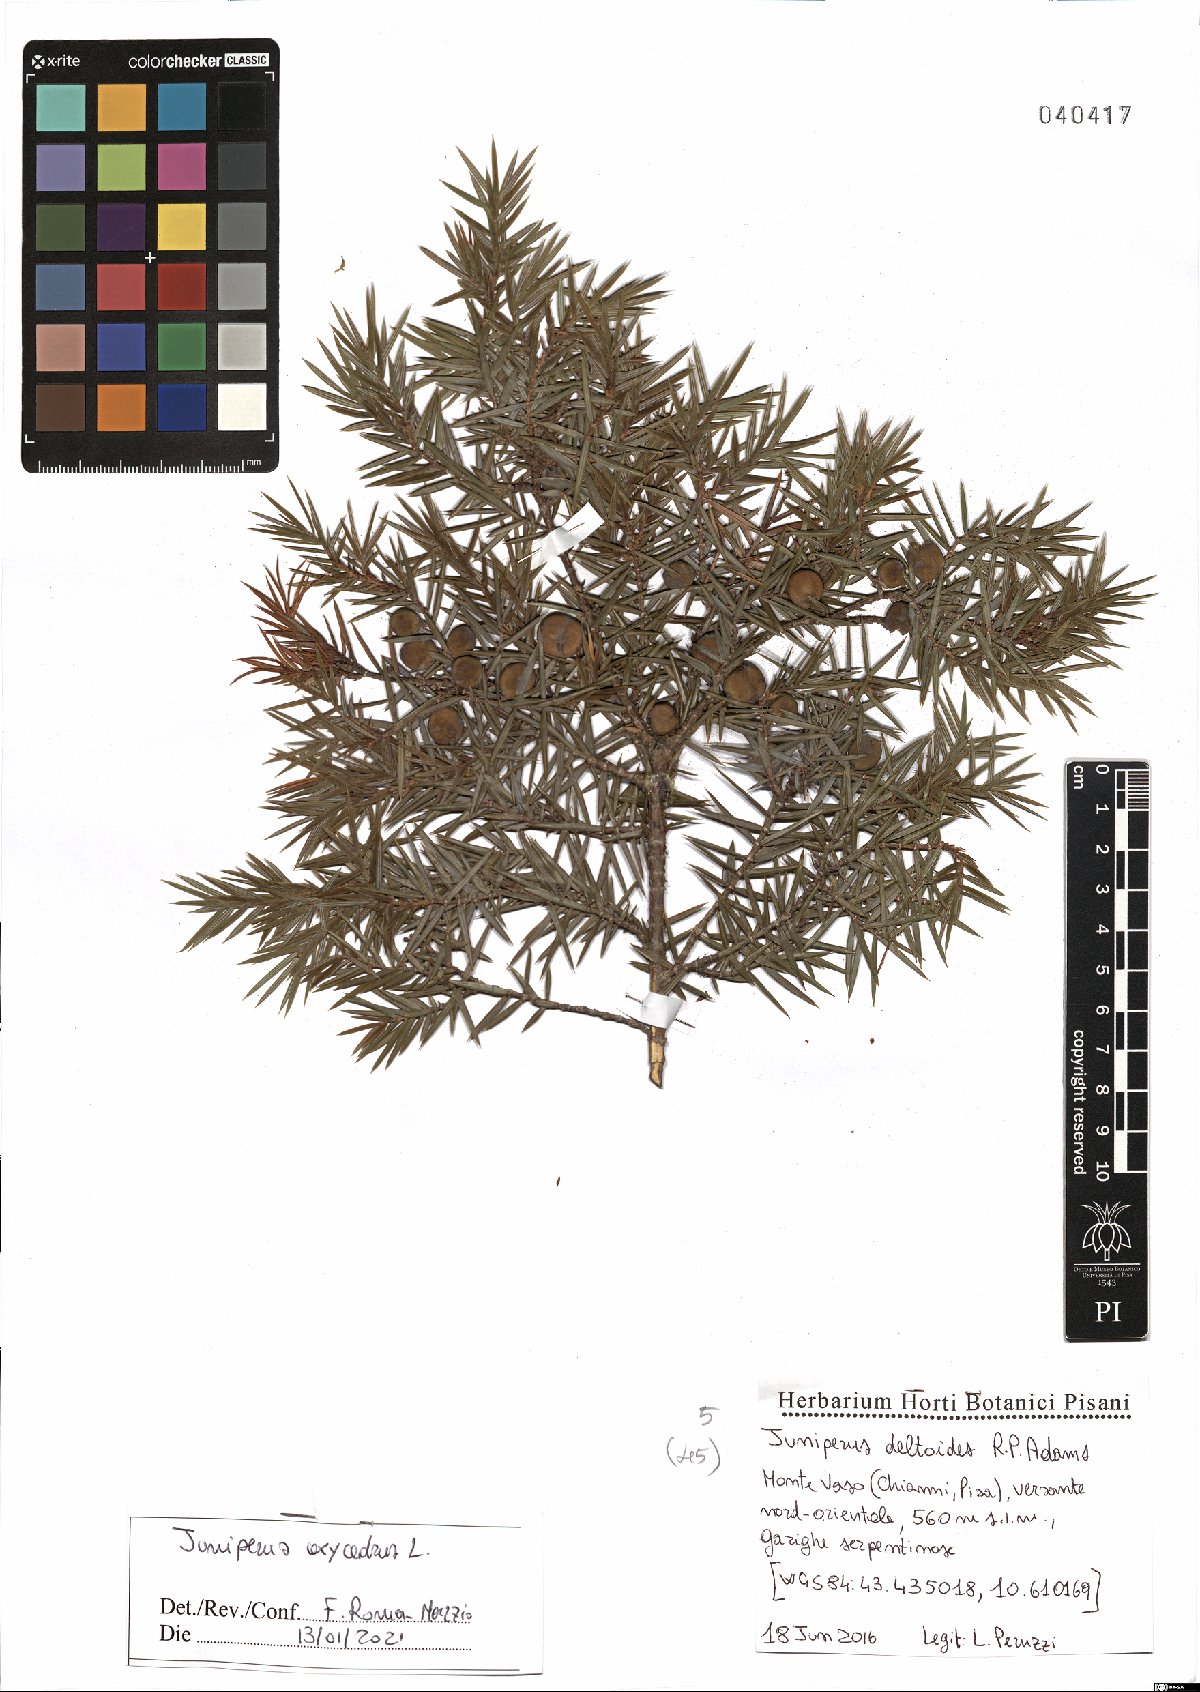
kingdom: Plantae
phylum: Tracheophyta
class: Pinopsida
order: Pinales
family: Cupressaceae
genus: Juniperus
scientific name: Juniperus oxycedrus
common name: Prickly juniper
